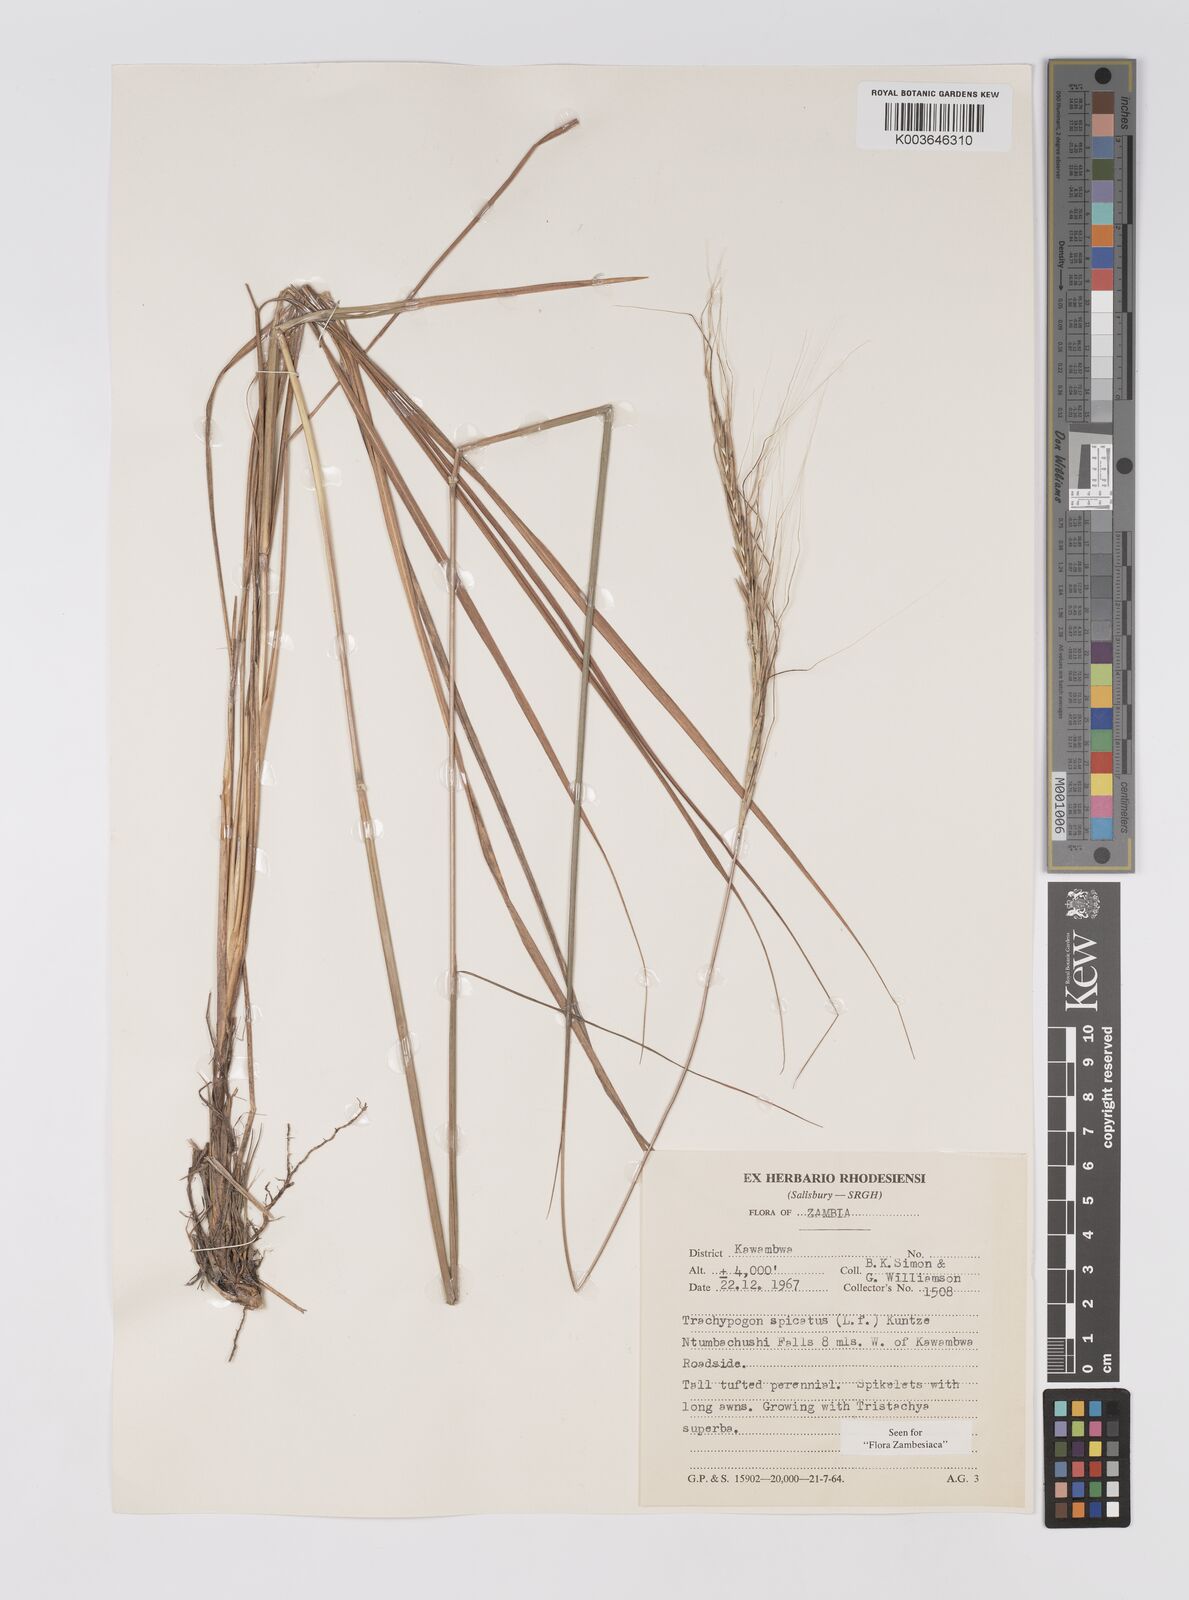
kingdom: Plantae
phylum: Tracheophyta
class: Liliopsida
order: Poales
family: Poaceae
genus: Trachypogon
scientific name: Trachypogon spicatus
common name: Crinkle-awn
